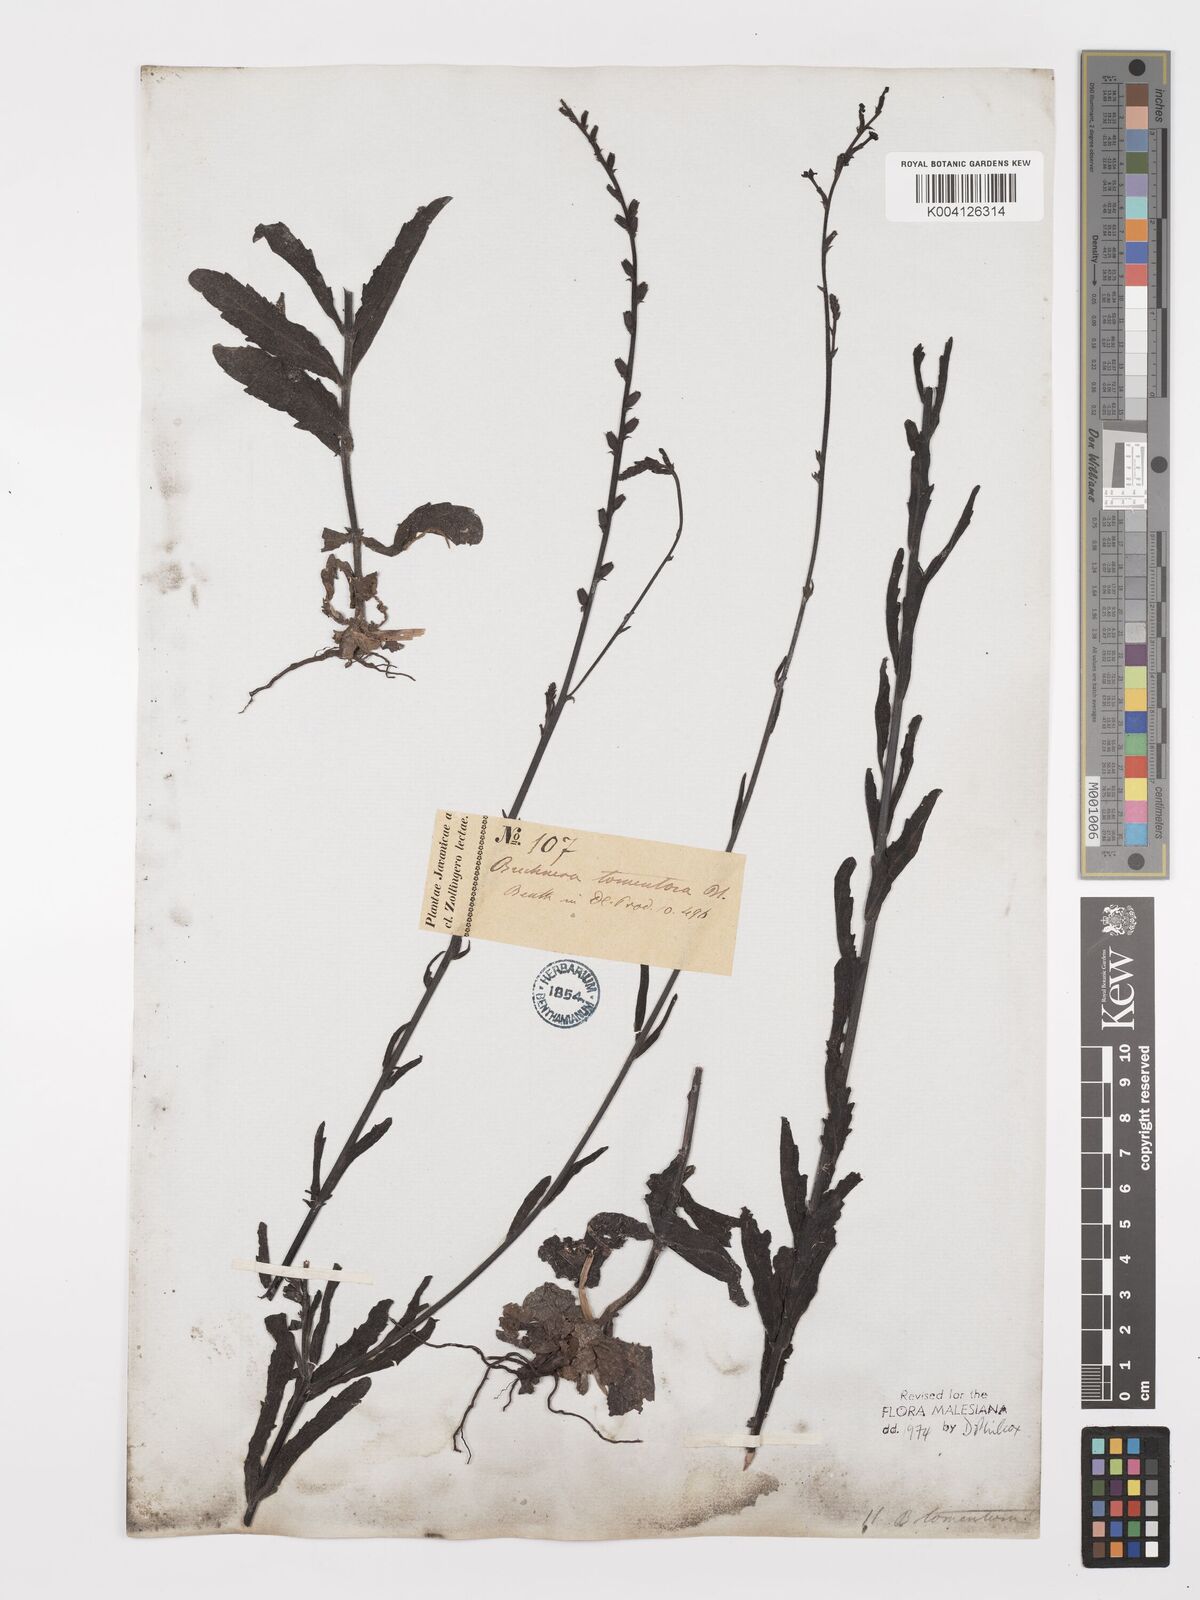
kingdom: Plantae
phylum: Tracheophyta
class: Magnoliopsida
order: Lamiales
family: Orobanchaceae
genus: Buchnera
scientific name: Buchnera tomentosa
